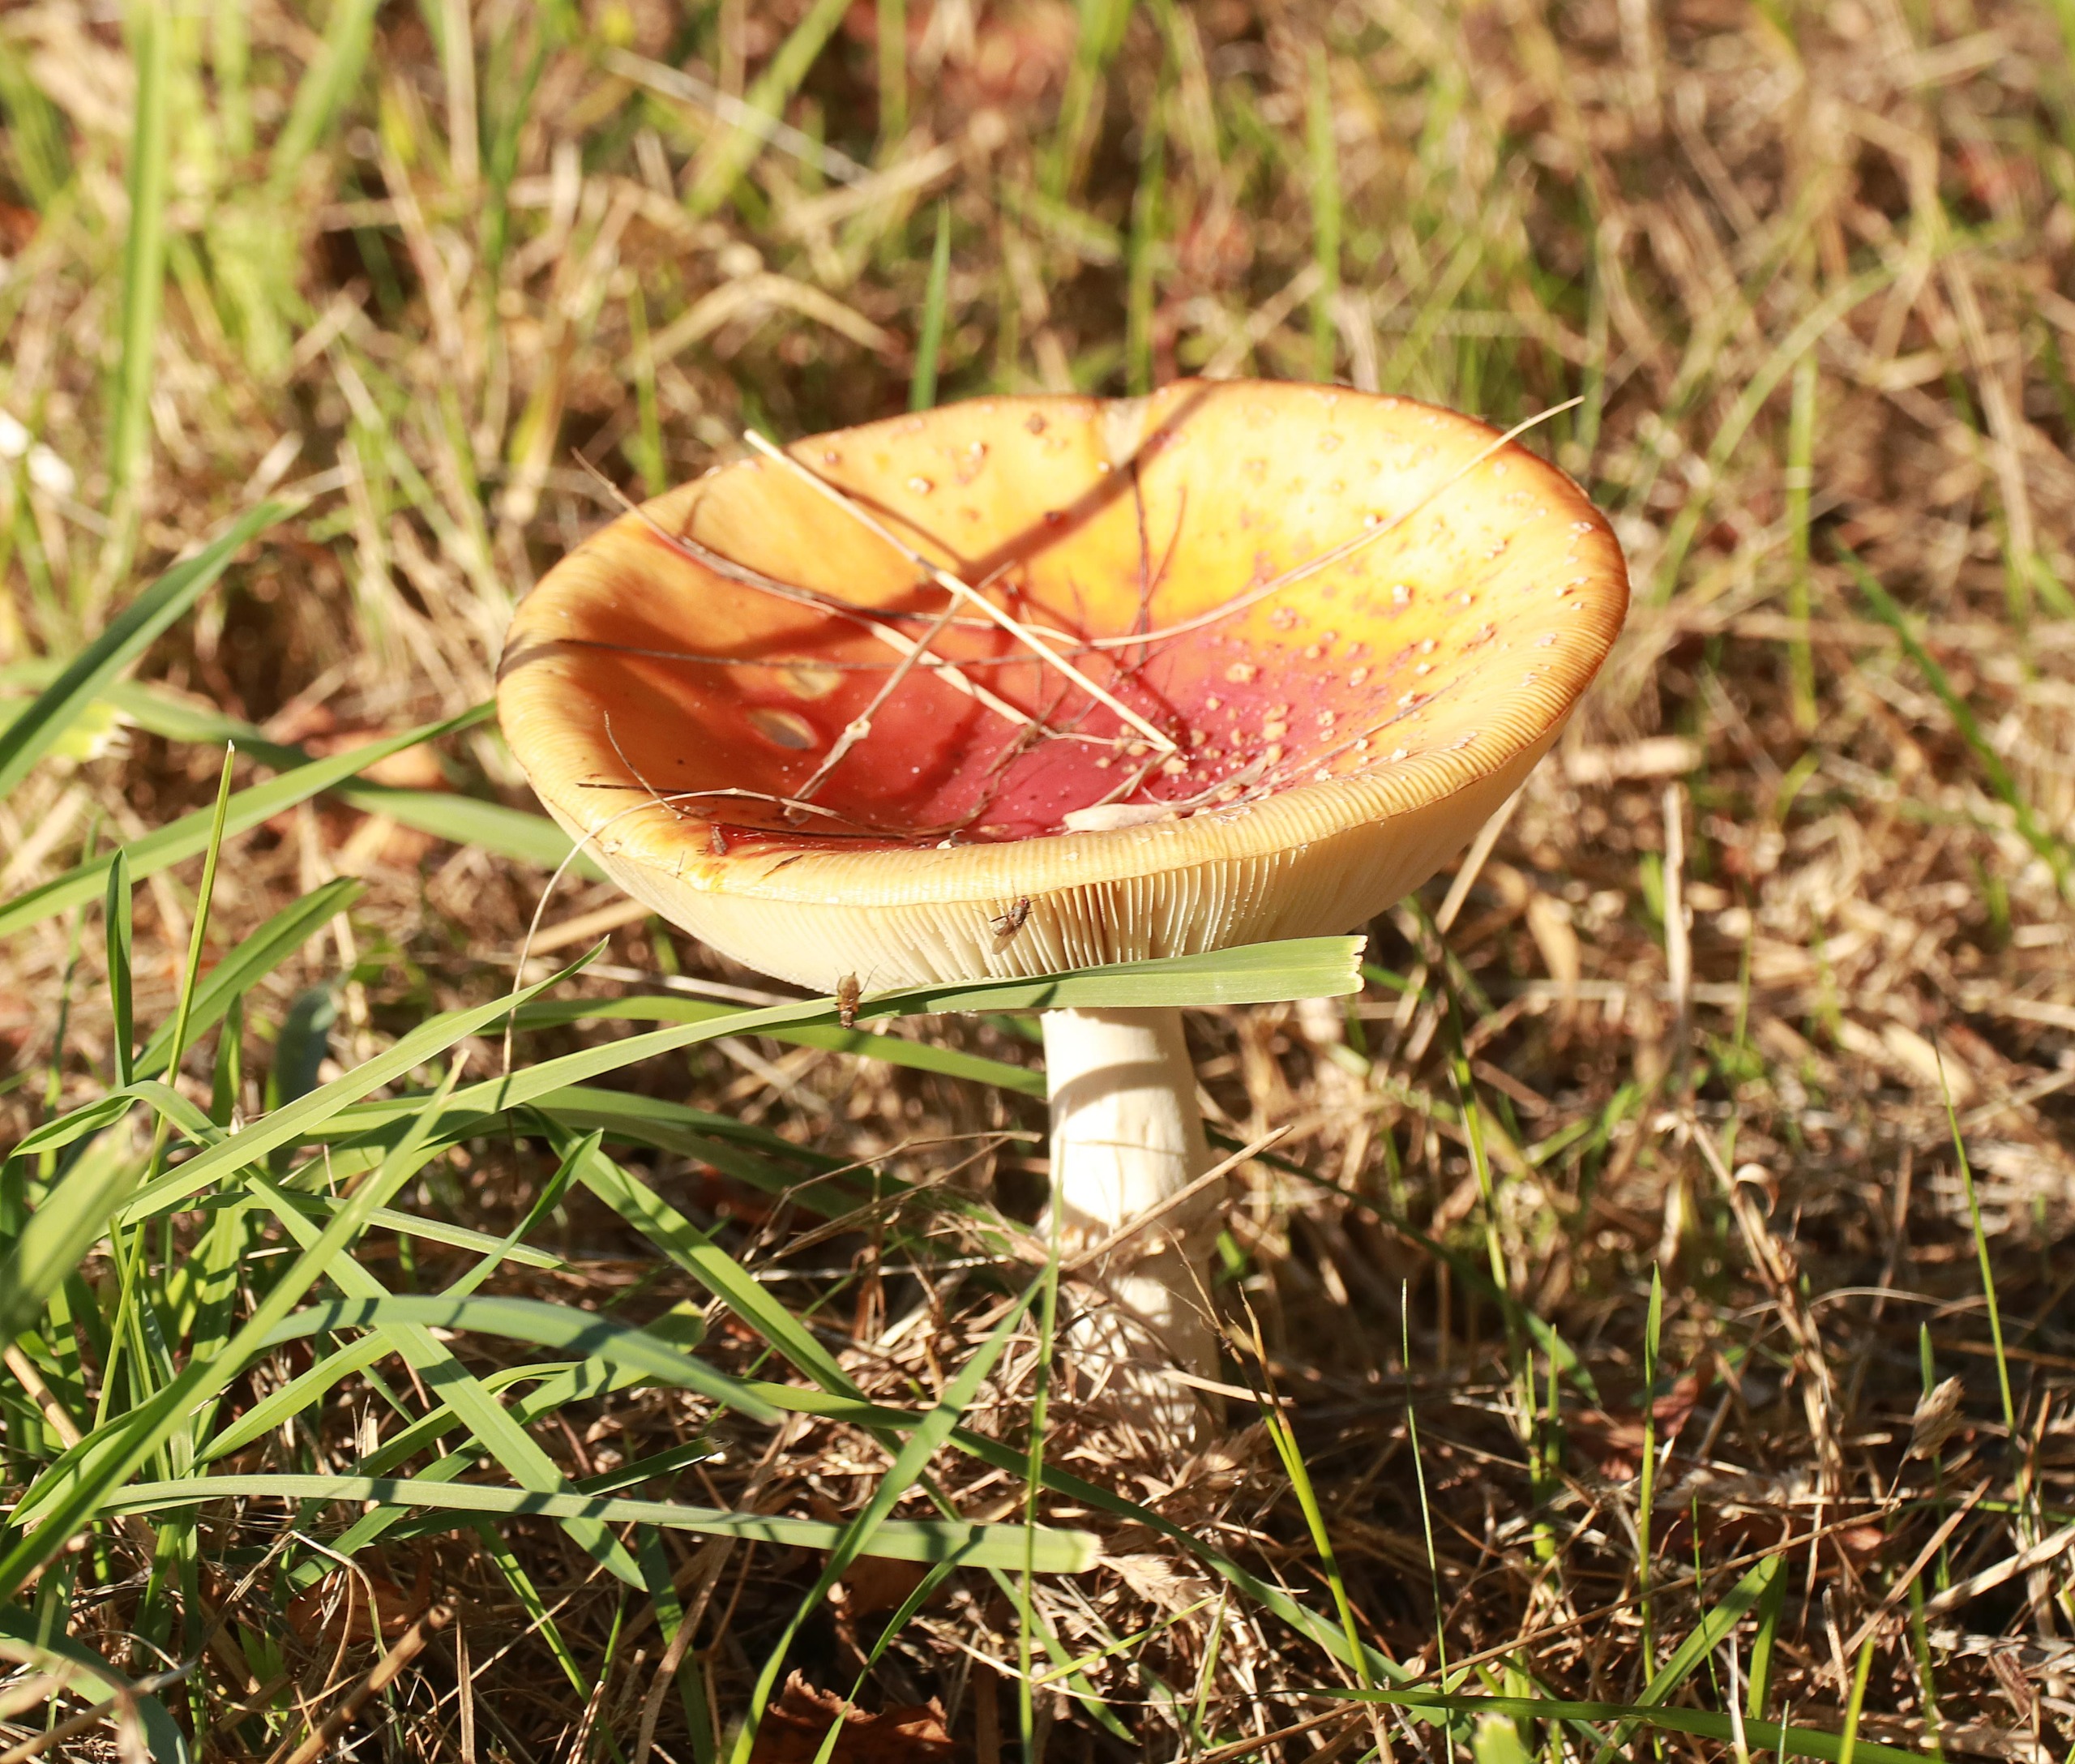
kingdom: Fungi
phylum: Basidiomycota
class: Agaricomycetes
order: Agaricales
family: Amanitaceae
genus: Amanita
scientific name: Amanita muscaria
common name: Rød fluesvamp
